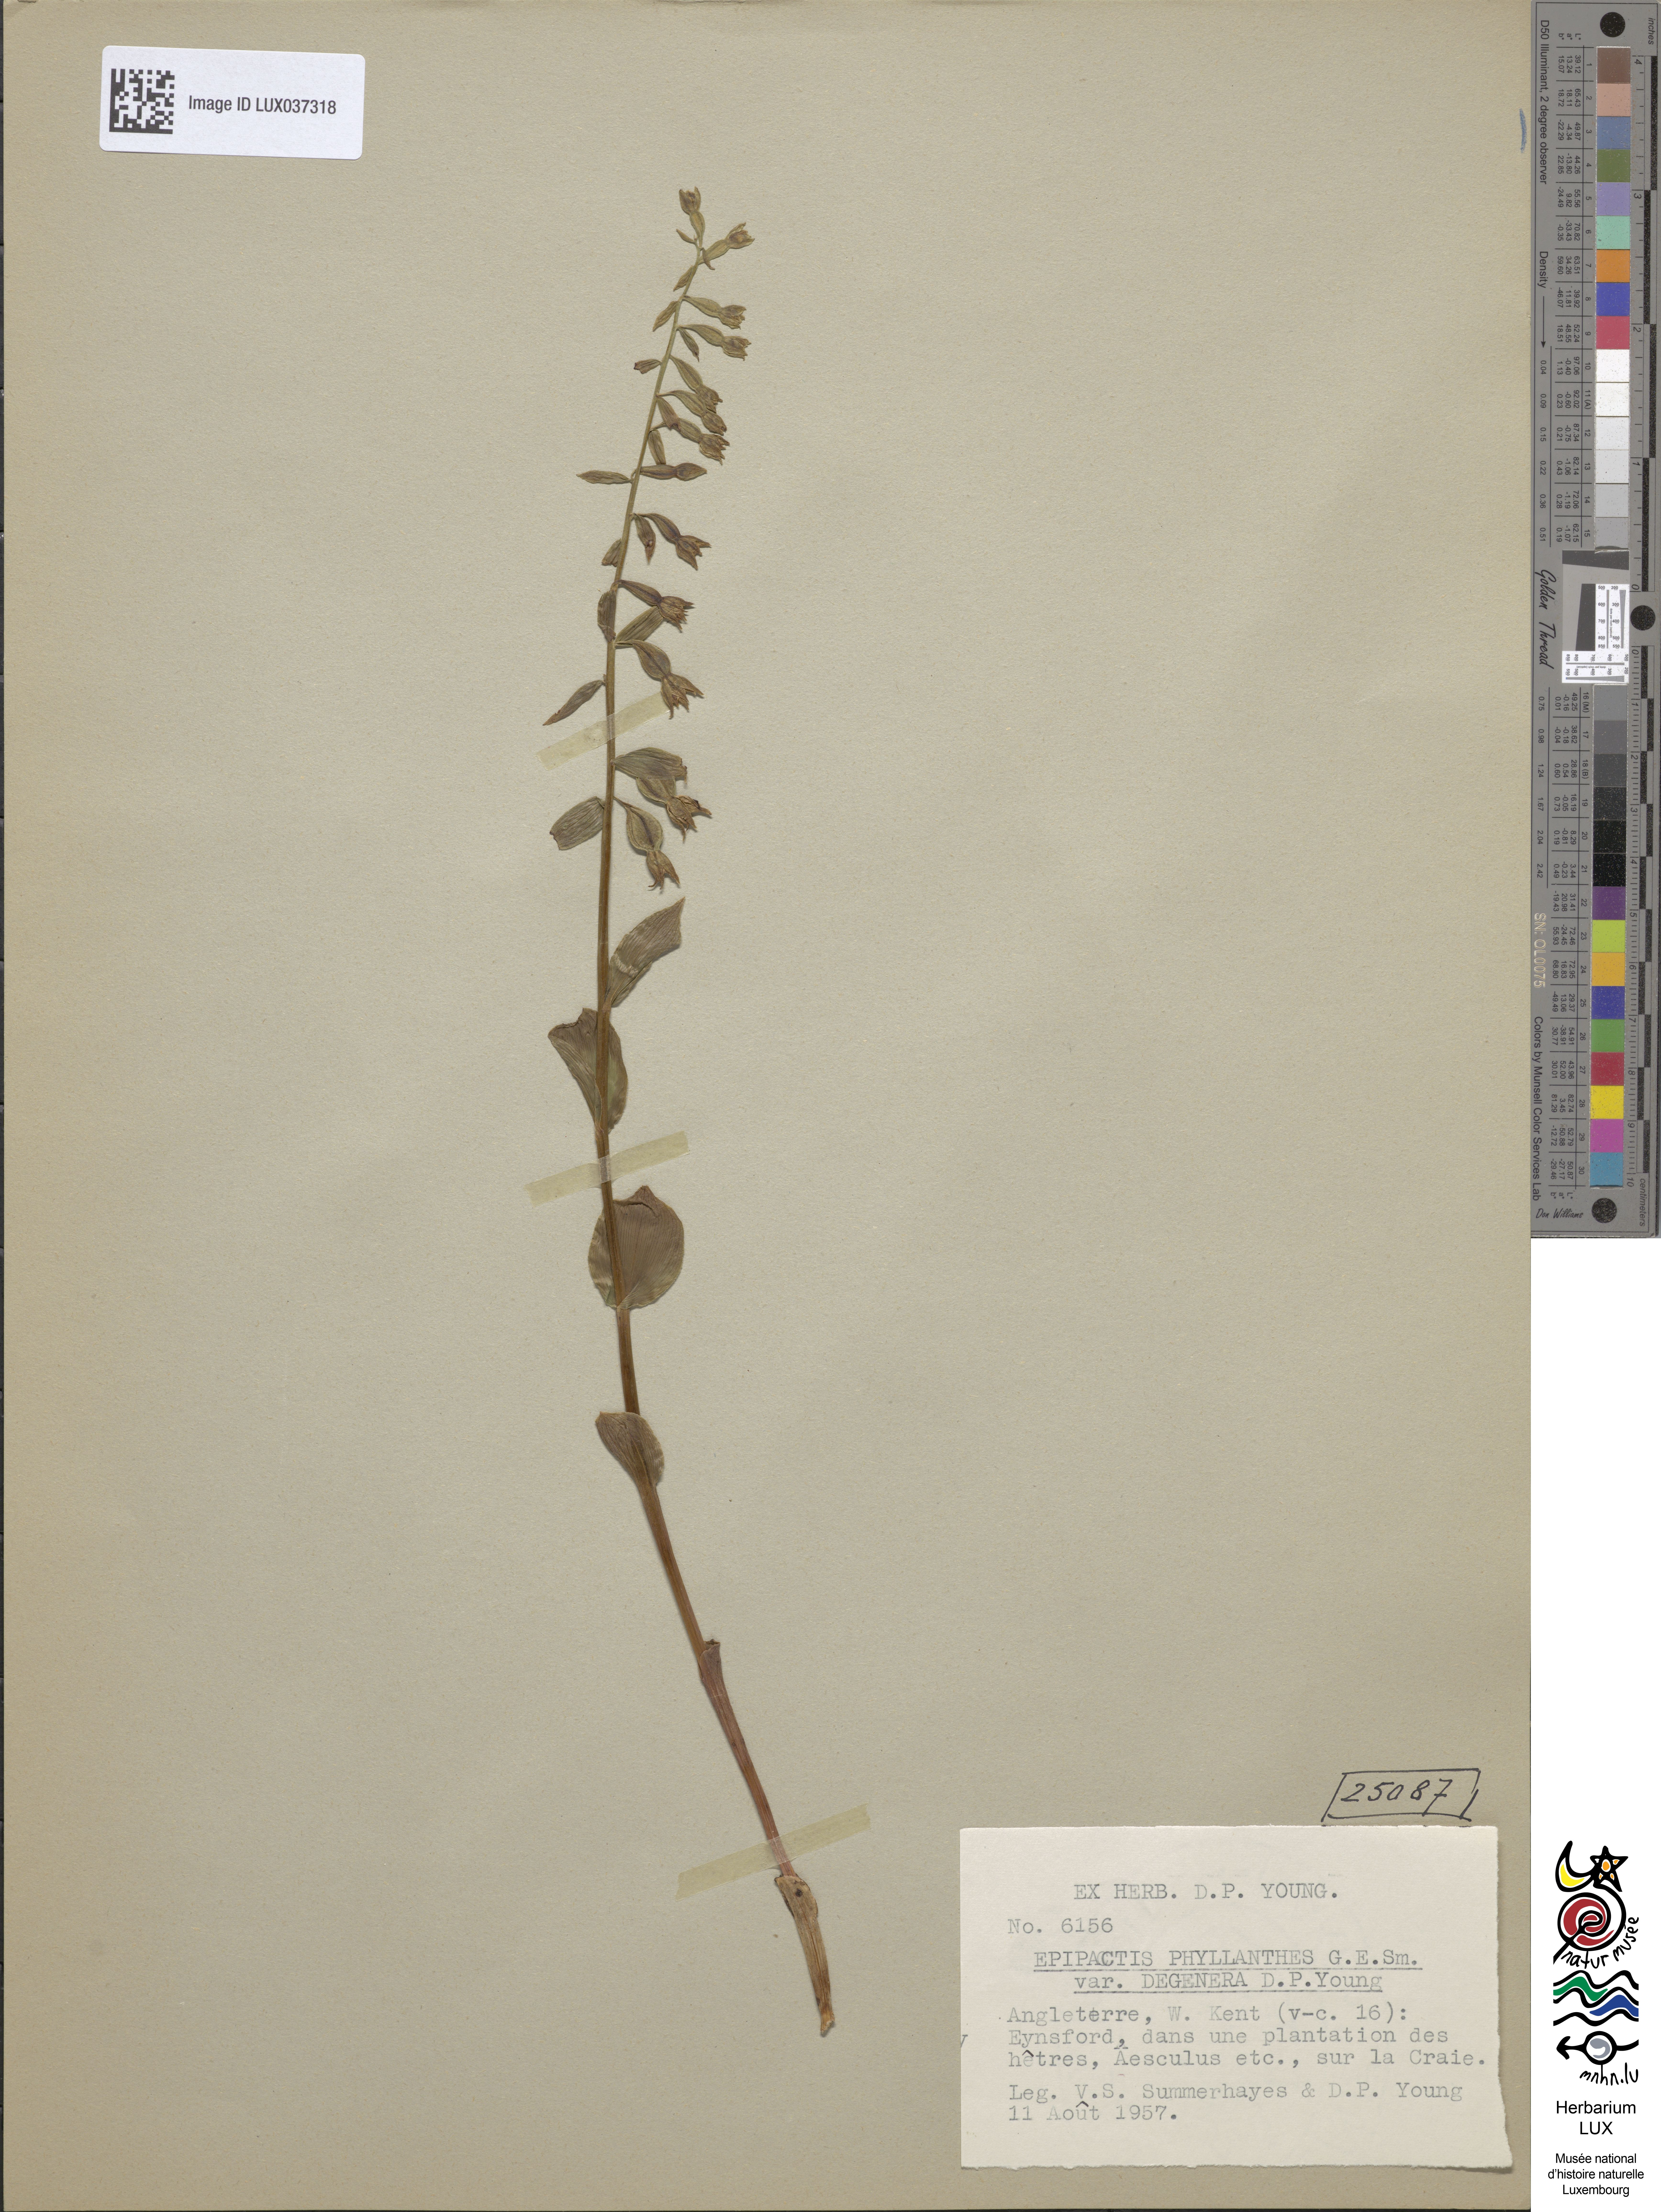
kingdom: Plantae
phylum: Tracheophyta
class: Liliopsida
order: Asparagales
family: Orchidaceae
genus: Epipactis
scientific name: Epipactis phyllanthes
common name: Green-flowered helleborine
